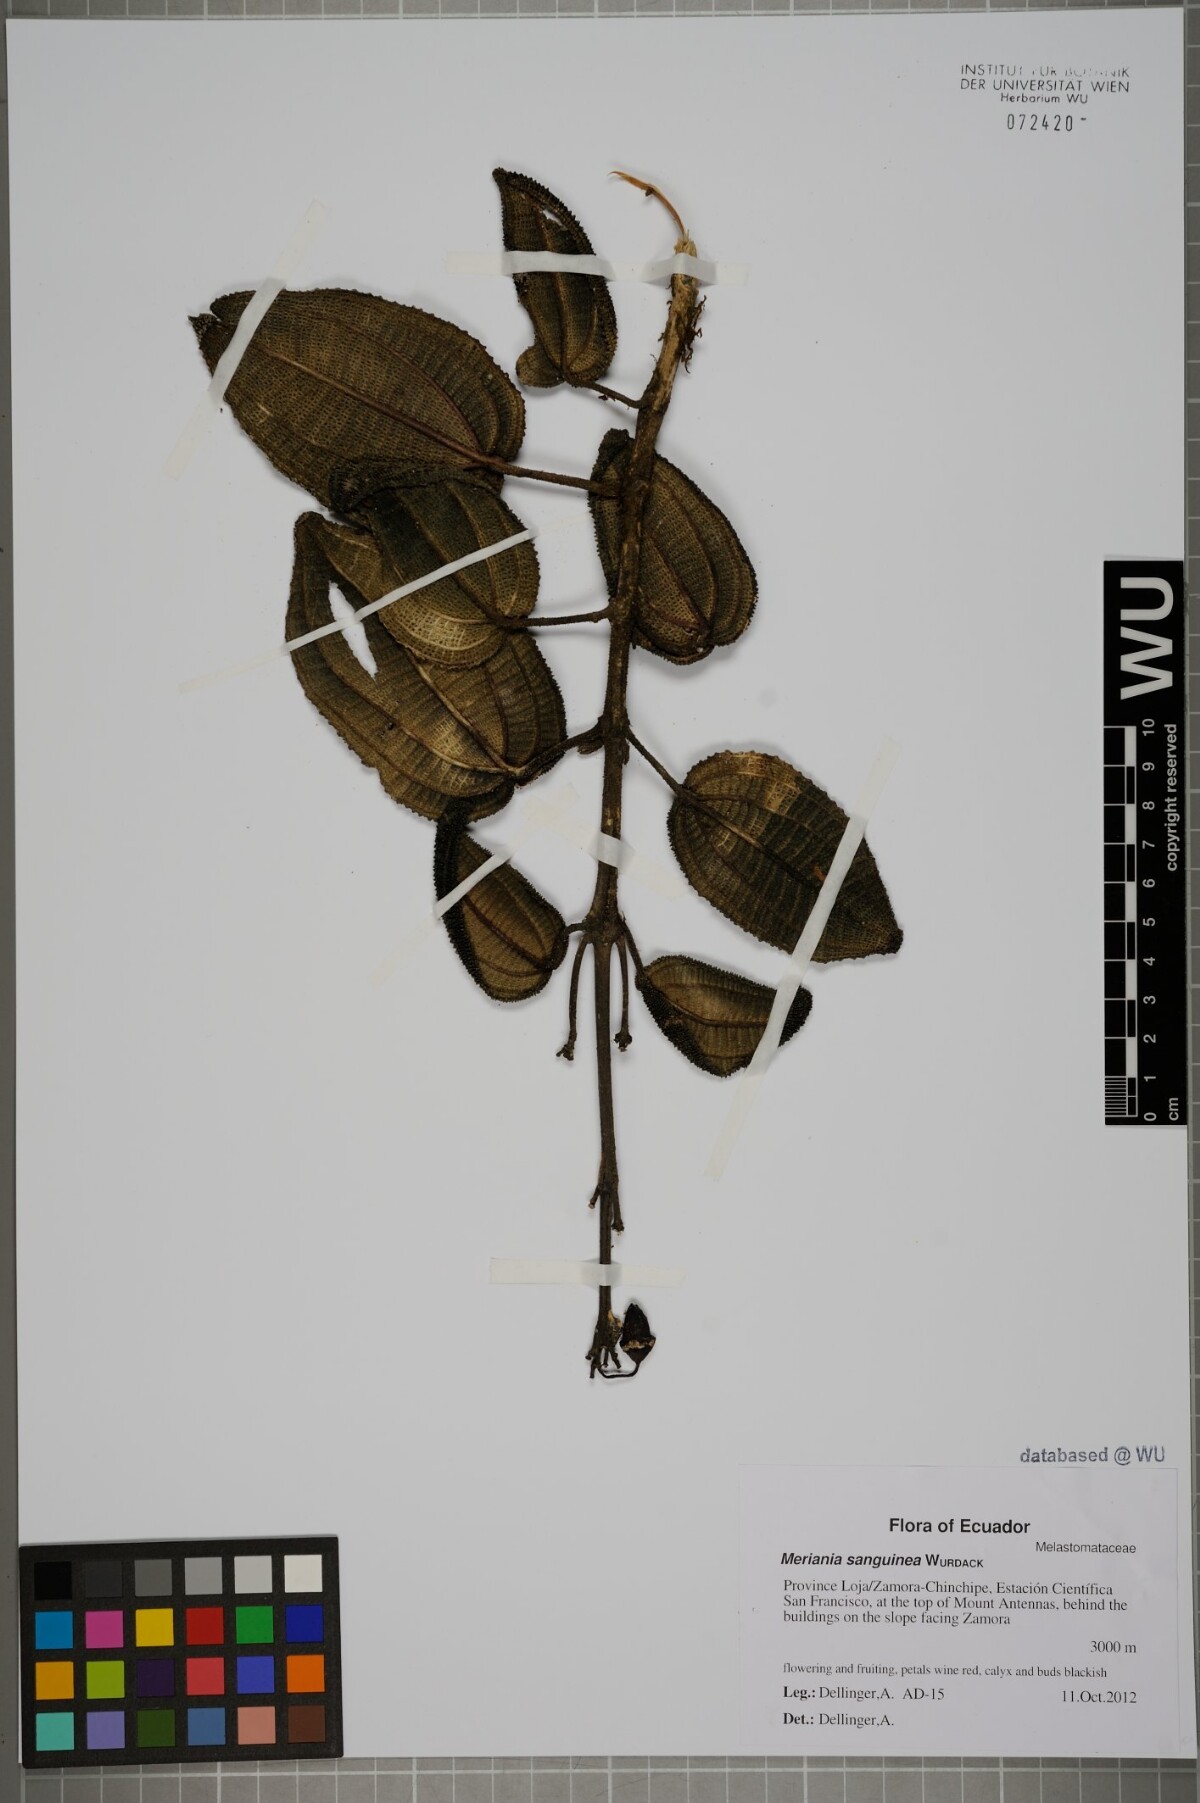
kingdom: Plantae
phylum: Tracheophyta
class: Magnoliopsida
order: Myrtales
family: Melastomataceae
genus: Meriania
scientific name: Meriania sanguinea
